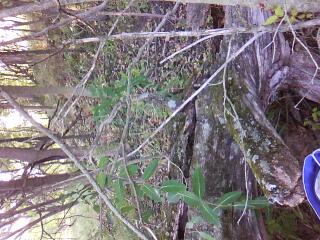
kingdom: Plantae
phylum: Tracheophyta
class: Liliopsida
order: Poales
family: Cyperaceae
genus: Carex
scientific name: Carex bebbii
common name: Bebb's sedge
